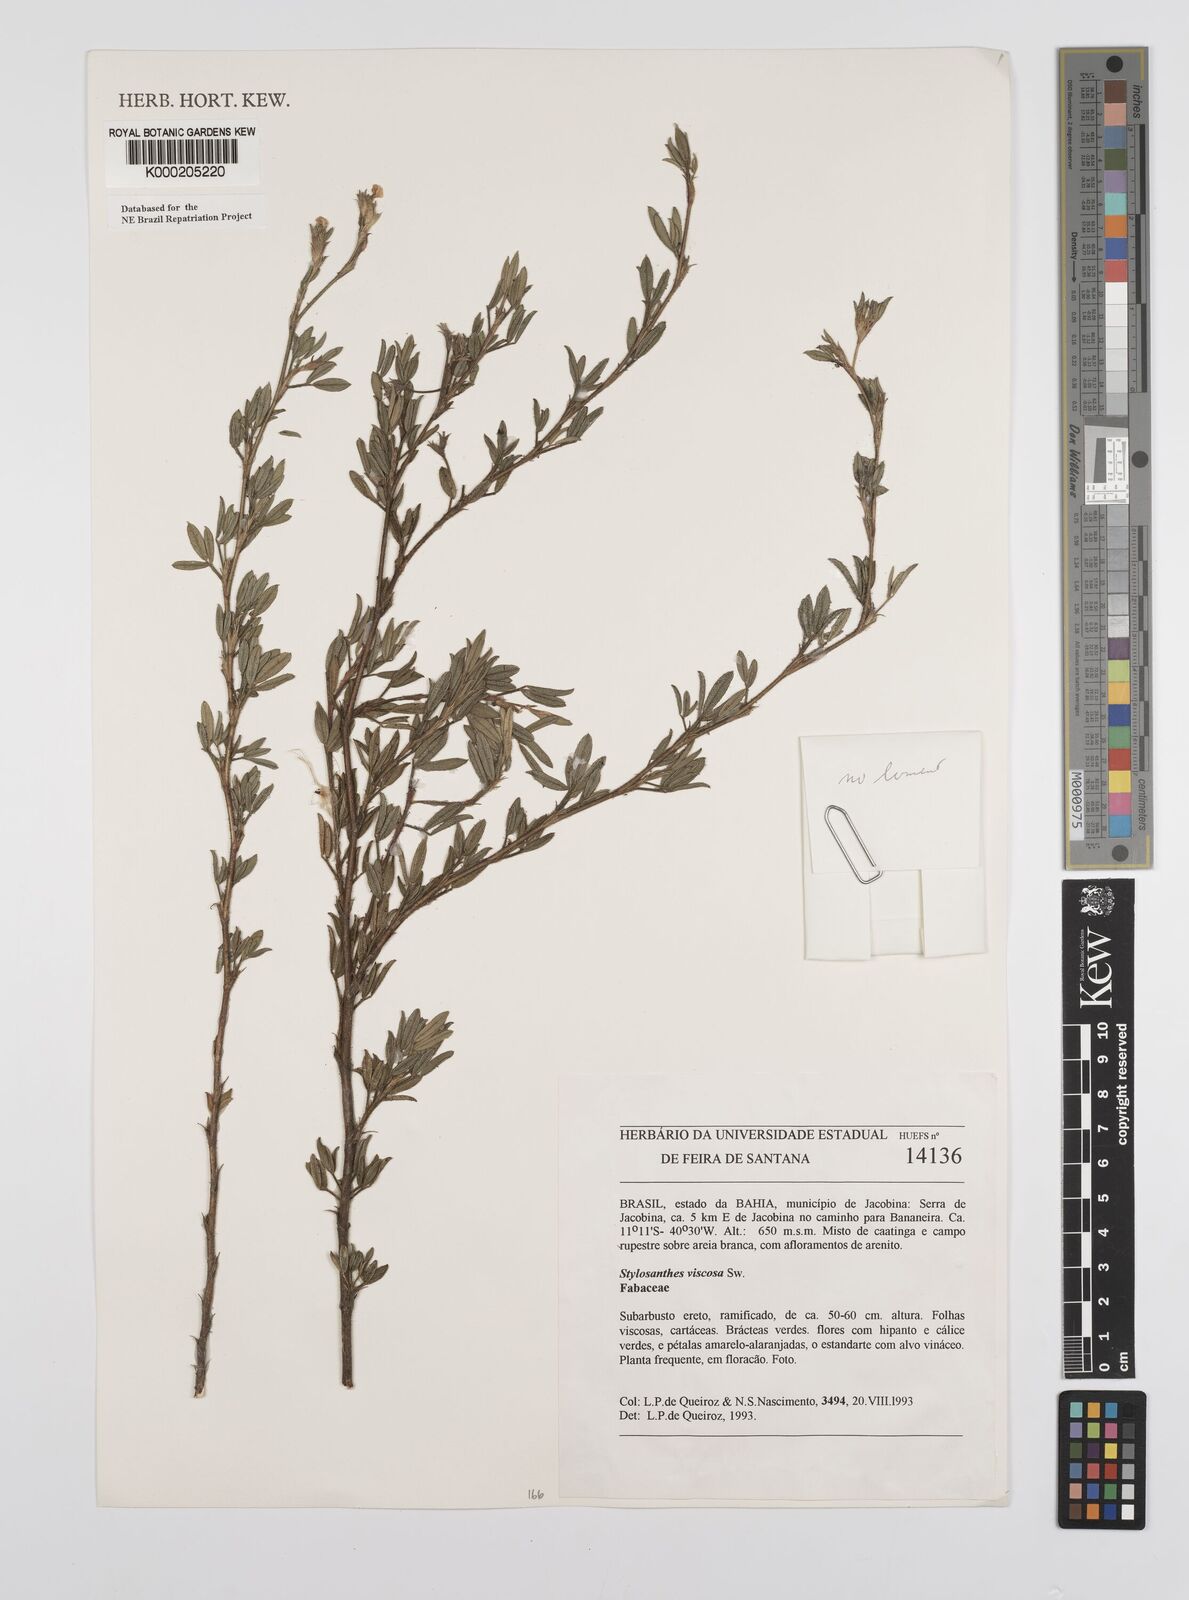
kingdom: Plantae
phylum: Tracheophyta
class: Magnoliopsida
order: Fabales
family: Fabaceae
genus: Stylosanthes
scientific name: Stylosanthes viscosa
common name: Viscid pencil-flower
